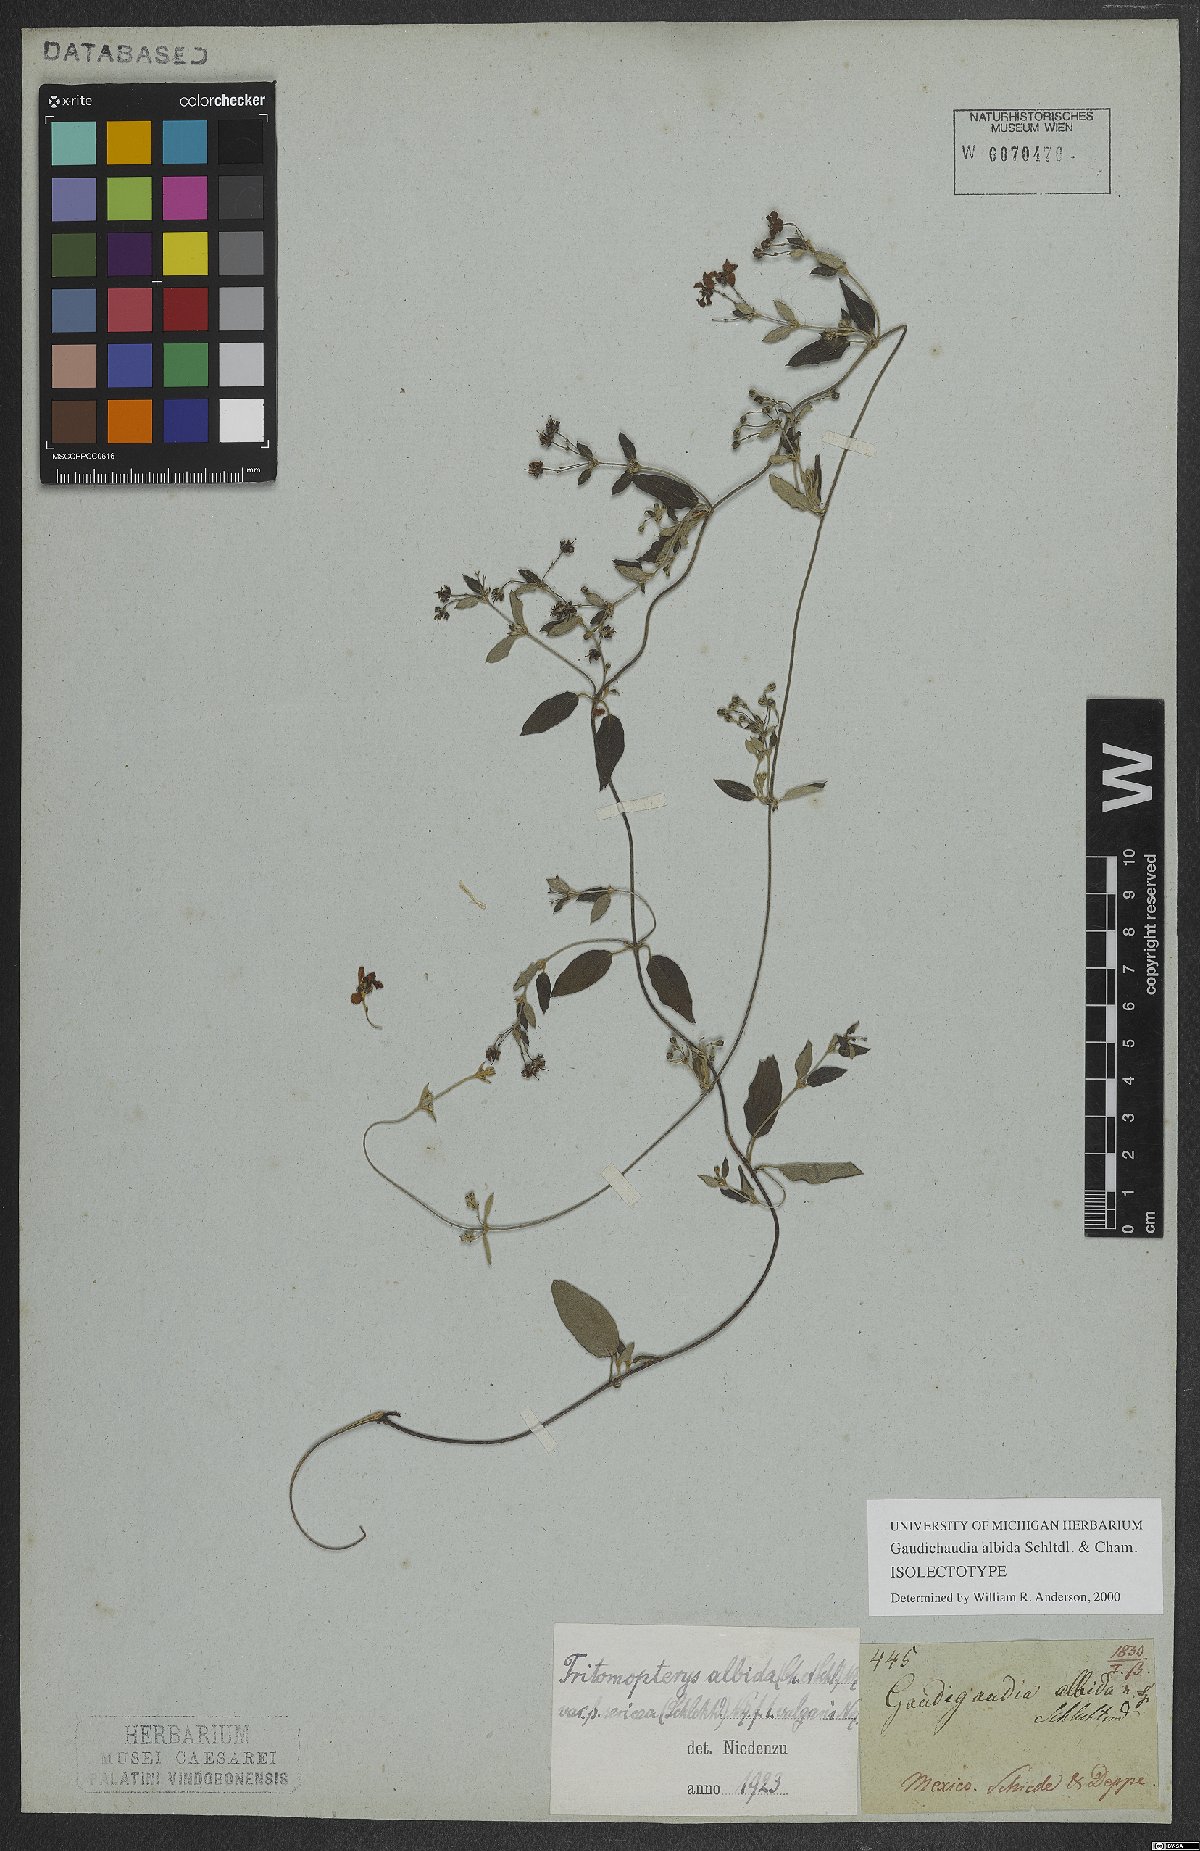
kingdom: Plantae
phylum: Tracheophyta
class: Magnoliopsida
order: Malpighiales
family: Malpighiaceae
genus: Gaudichaudia
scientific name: Gaudichaudia albida
